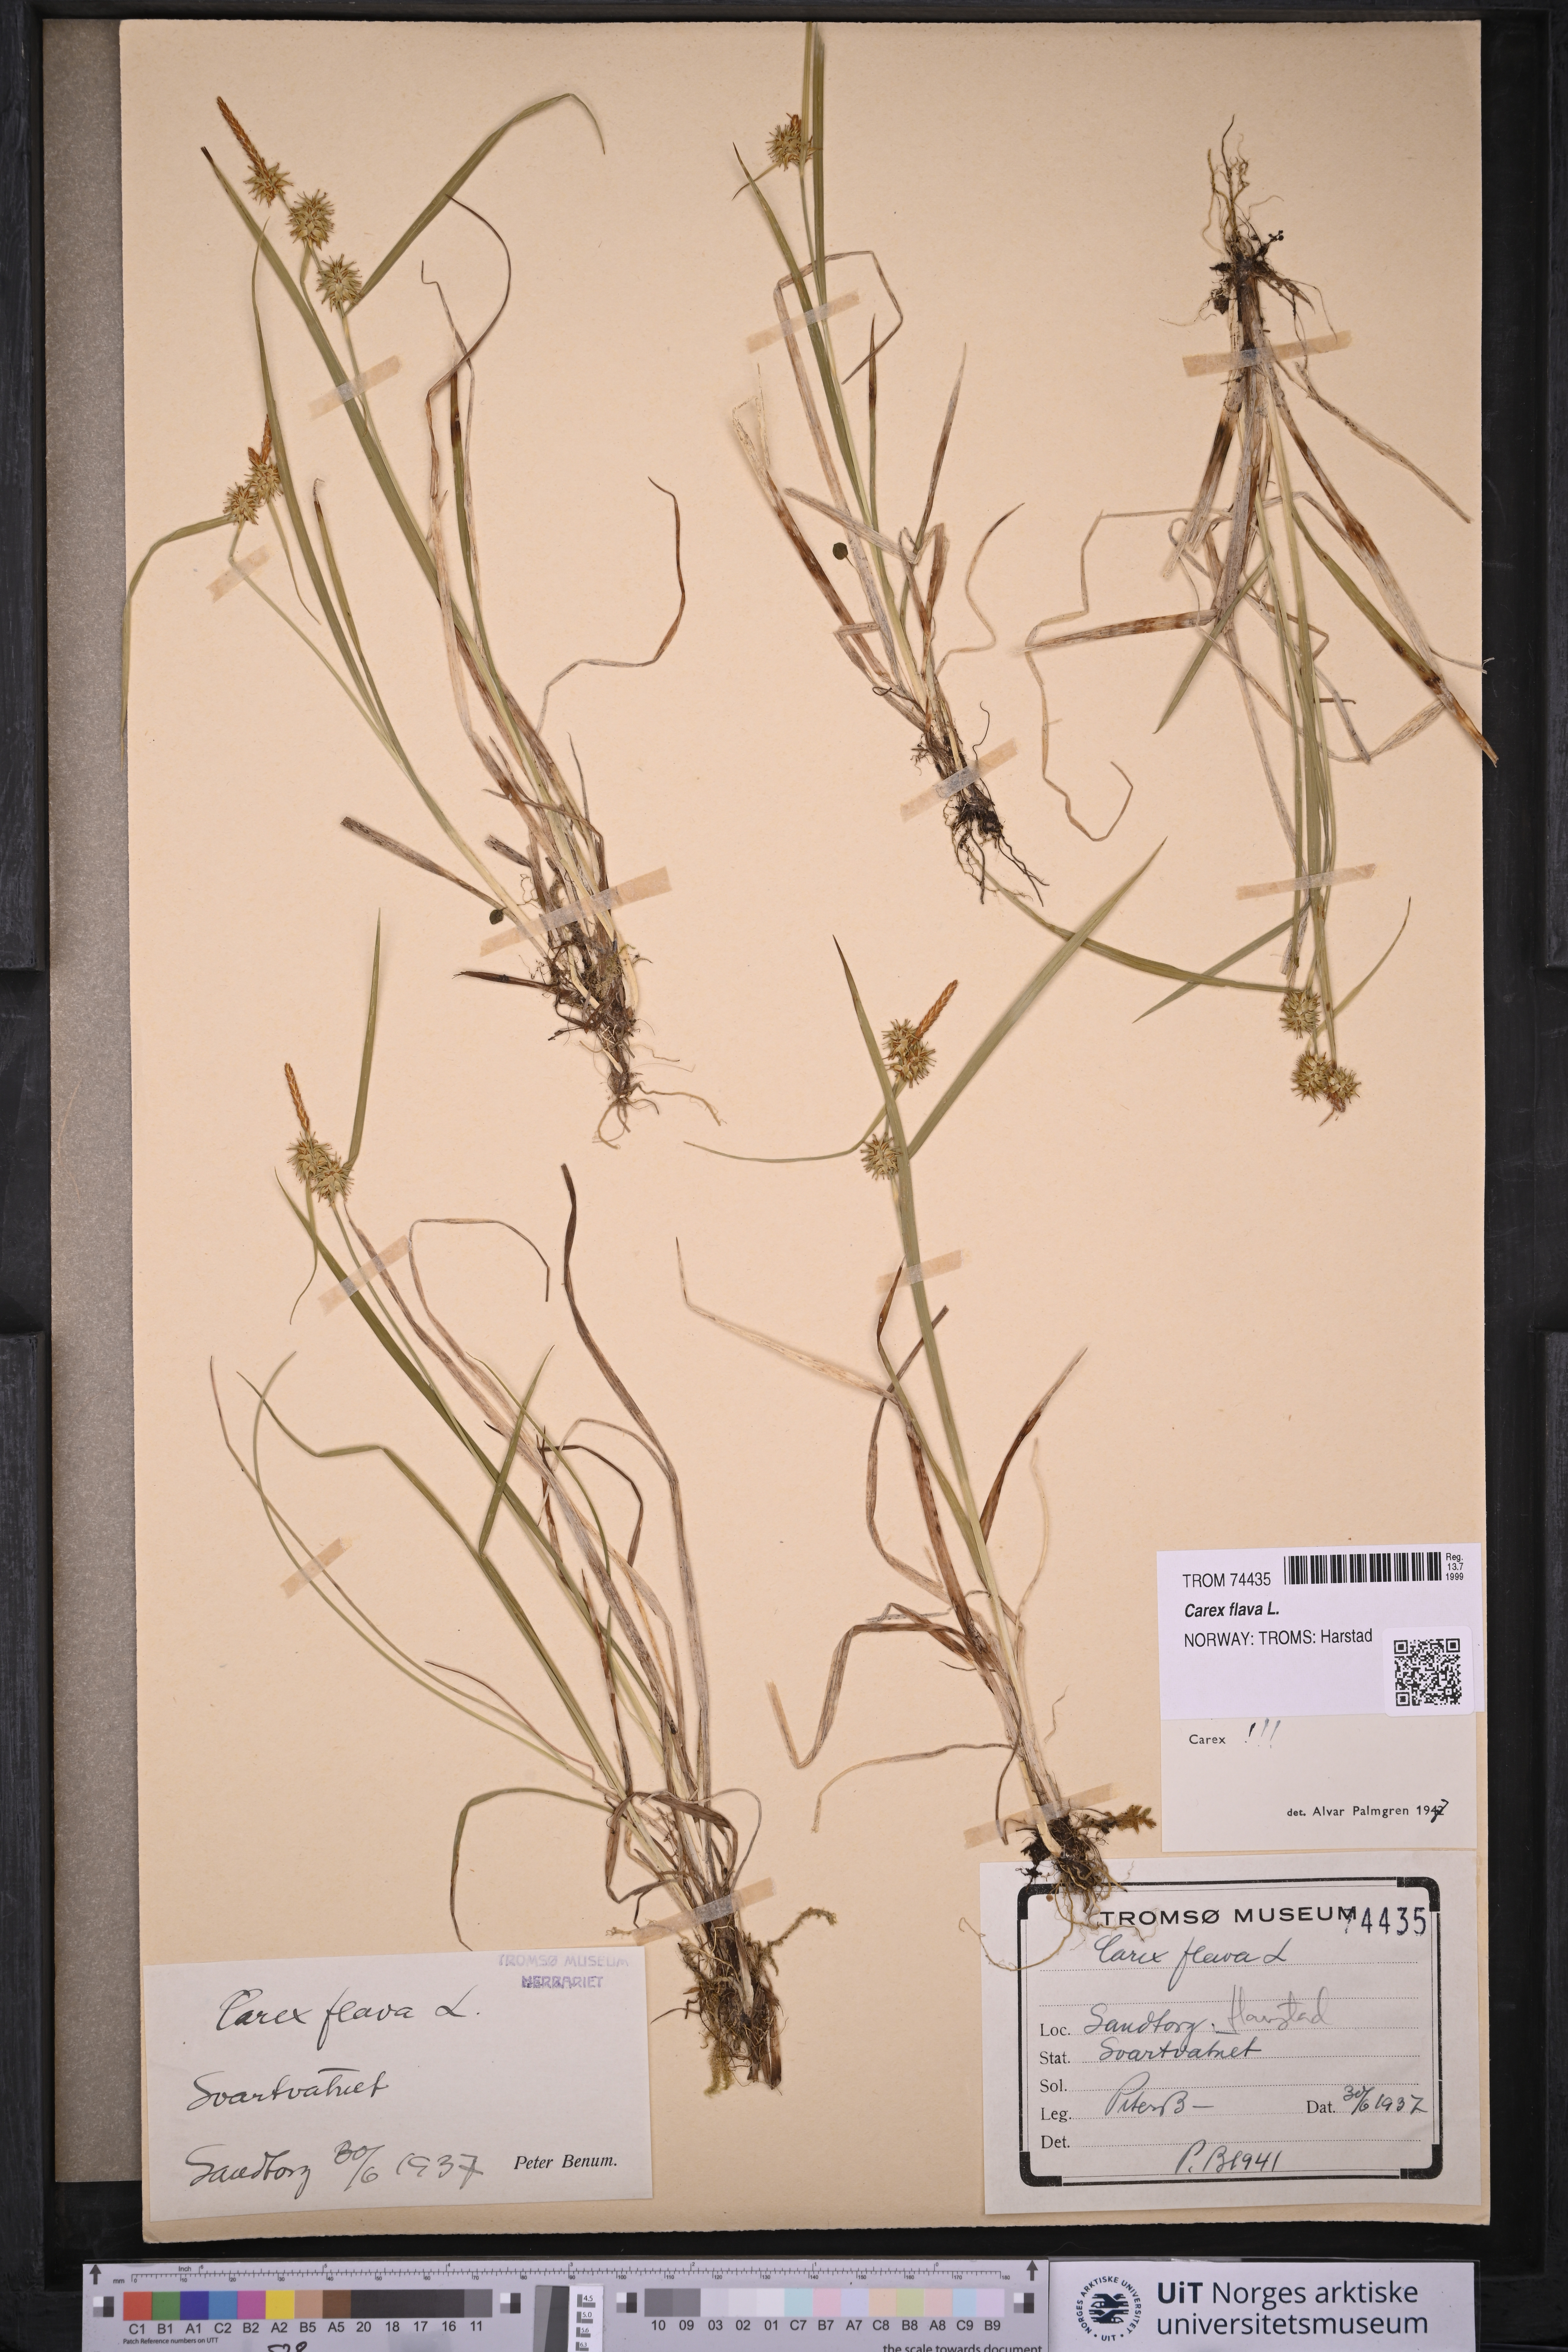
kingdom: Plantae
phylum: Tracheophyta
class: Liliopsida
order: Poales
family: Cyperaceae
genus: Carex
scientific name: Carex flava
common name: Large yellow-sedge
